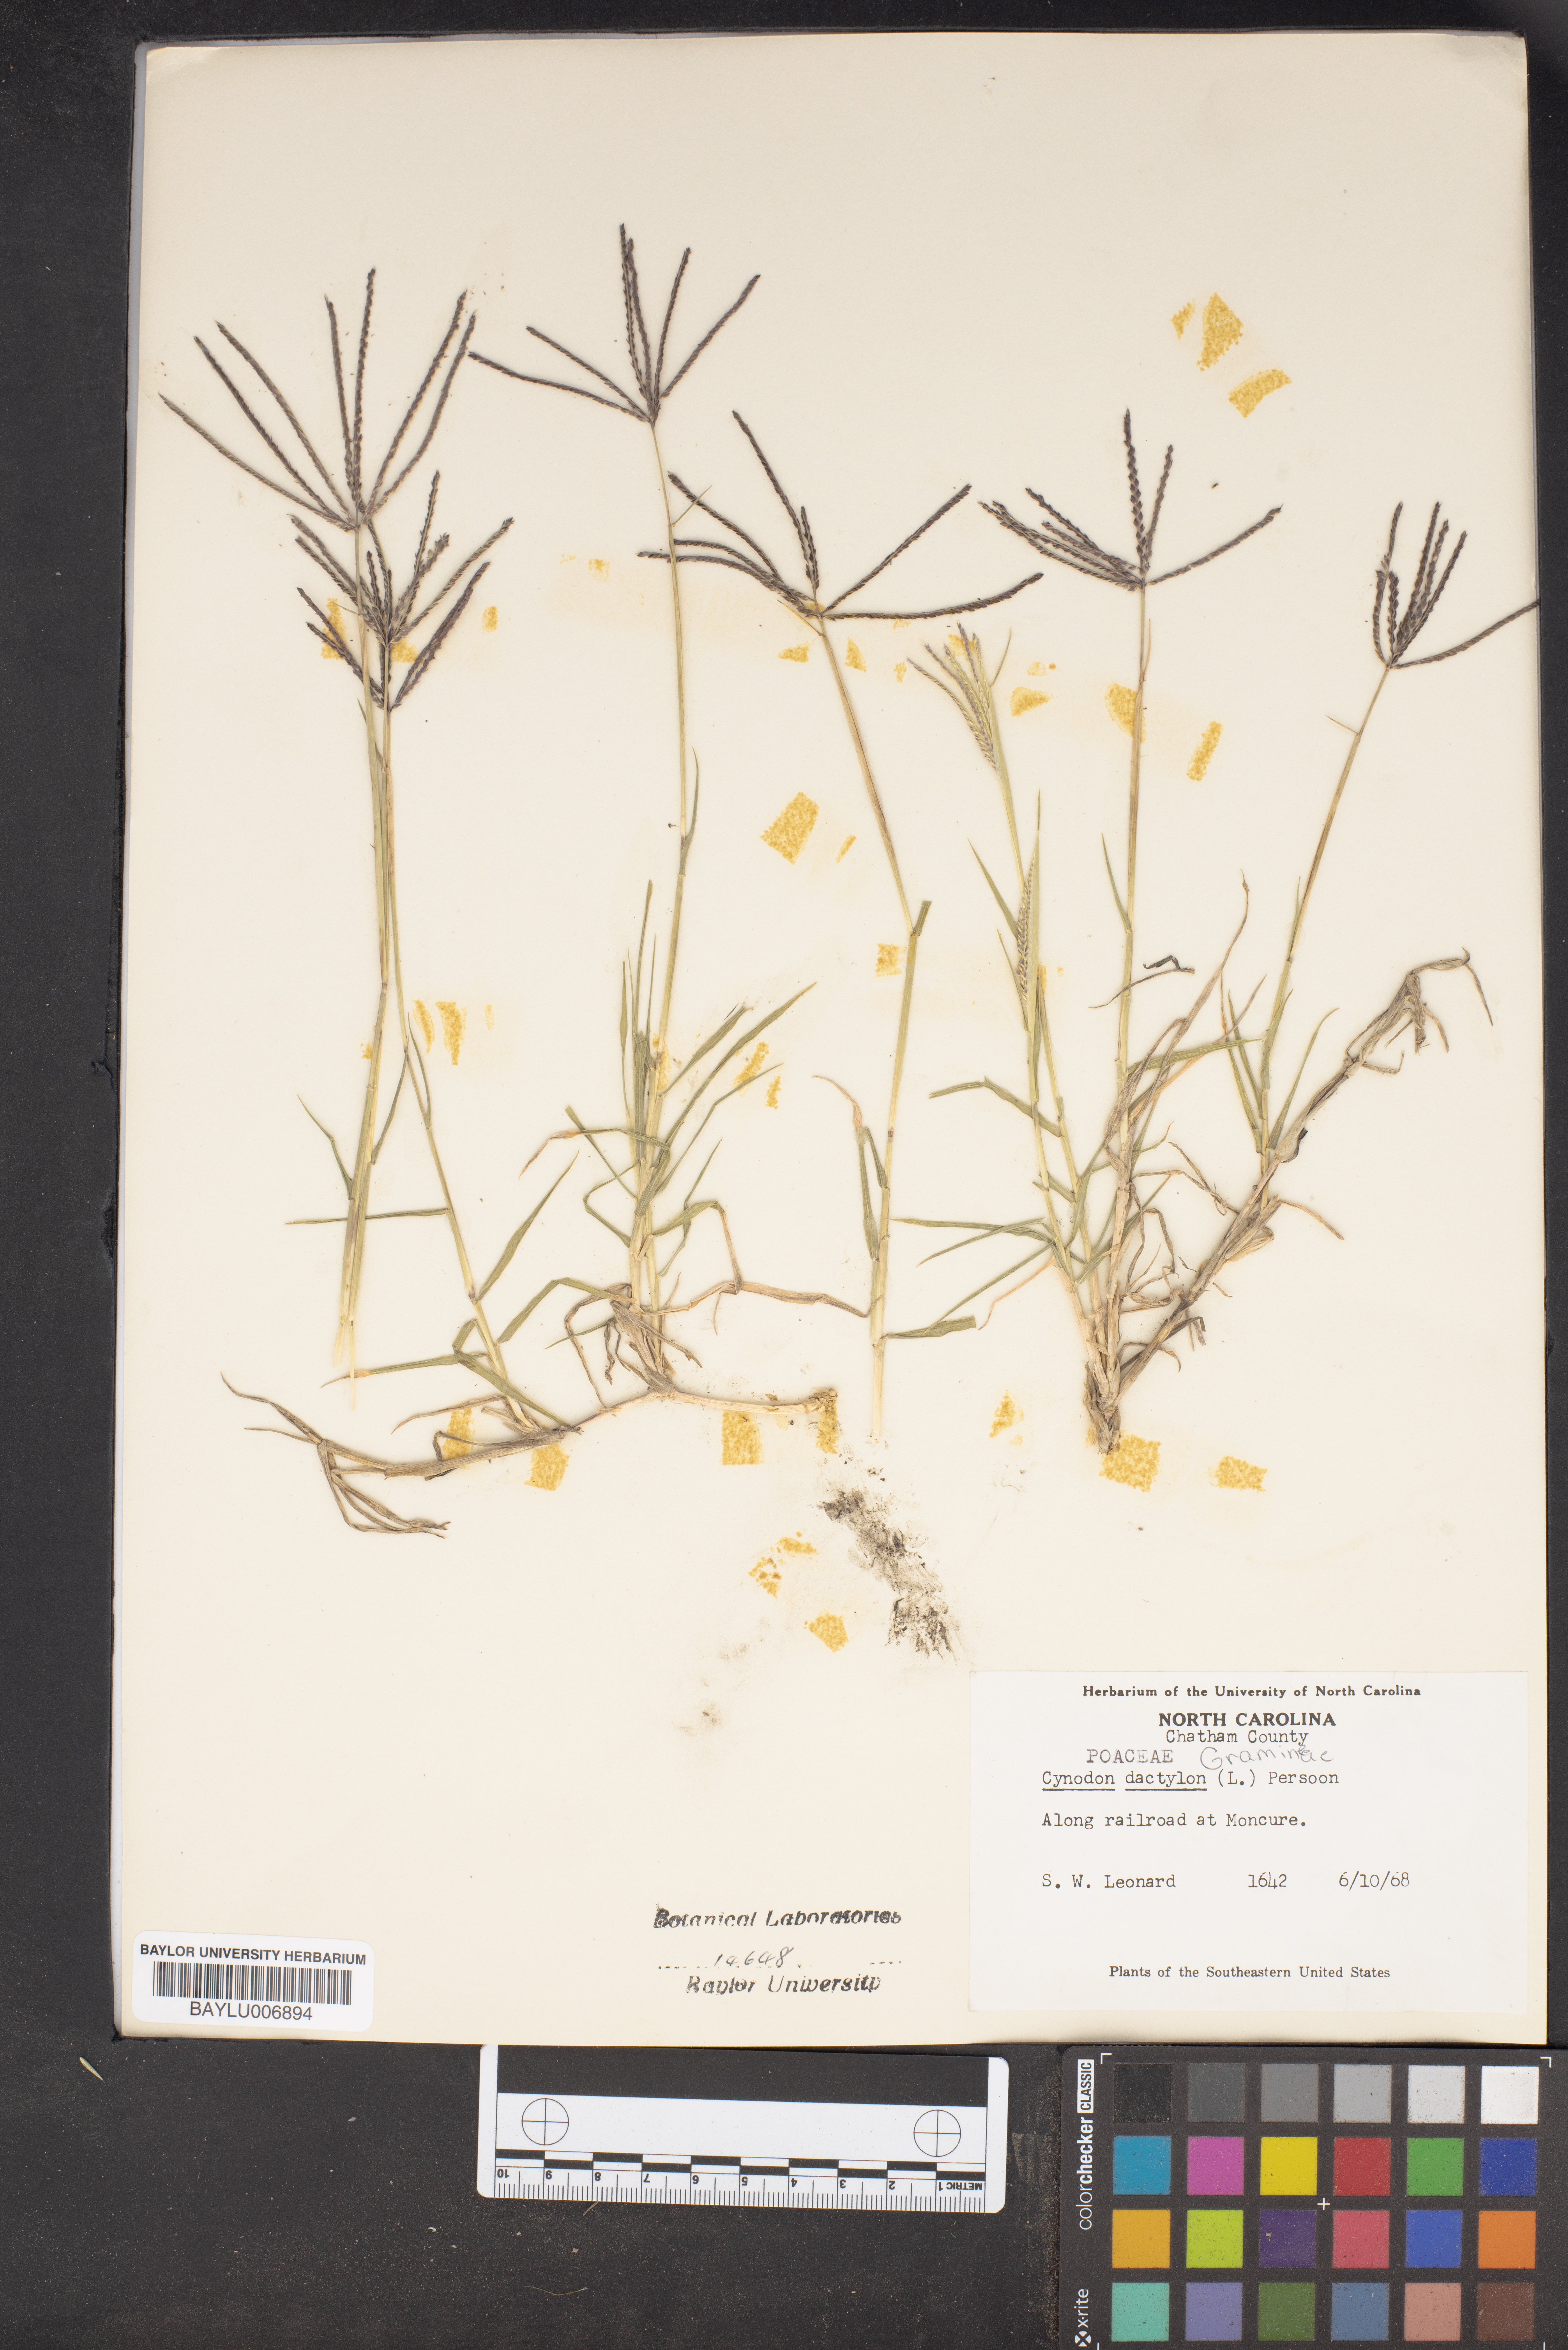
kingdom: Plantae
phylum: Tracheophyta
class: Liliopsida
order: Poales
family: Poaceae
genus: Cynodon
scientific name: Cynodon dactylon
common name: Bermuda grass
